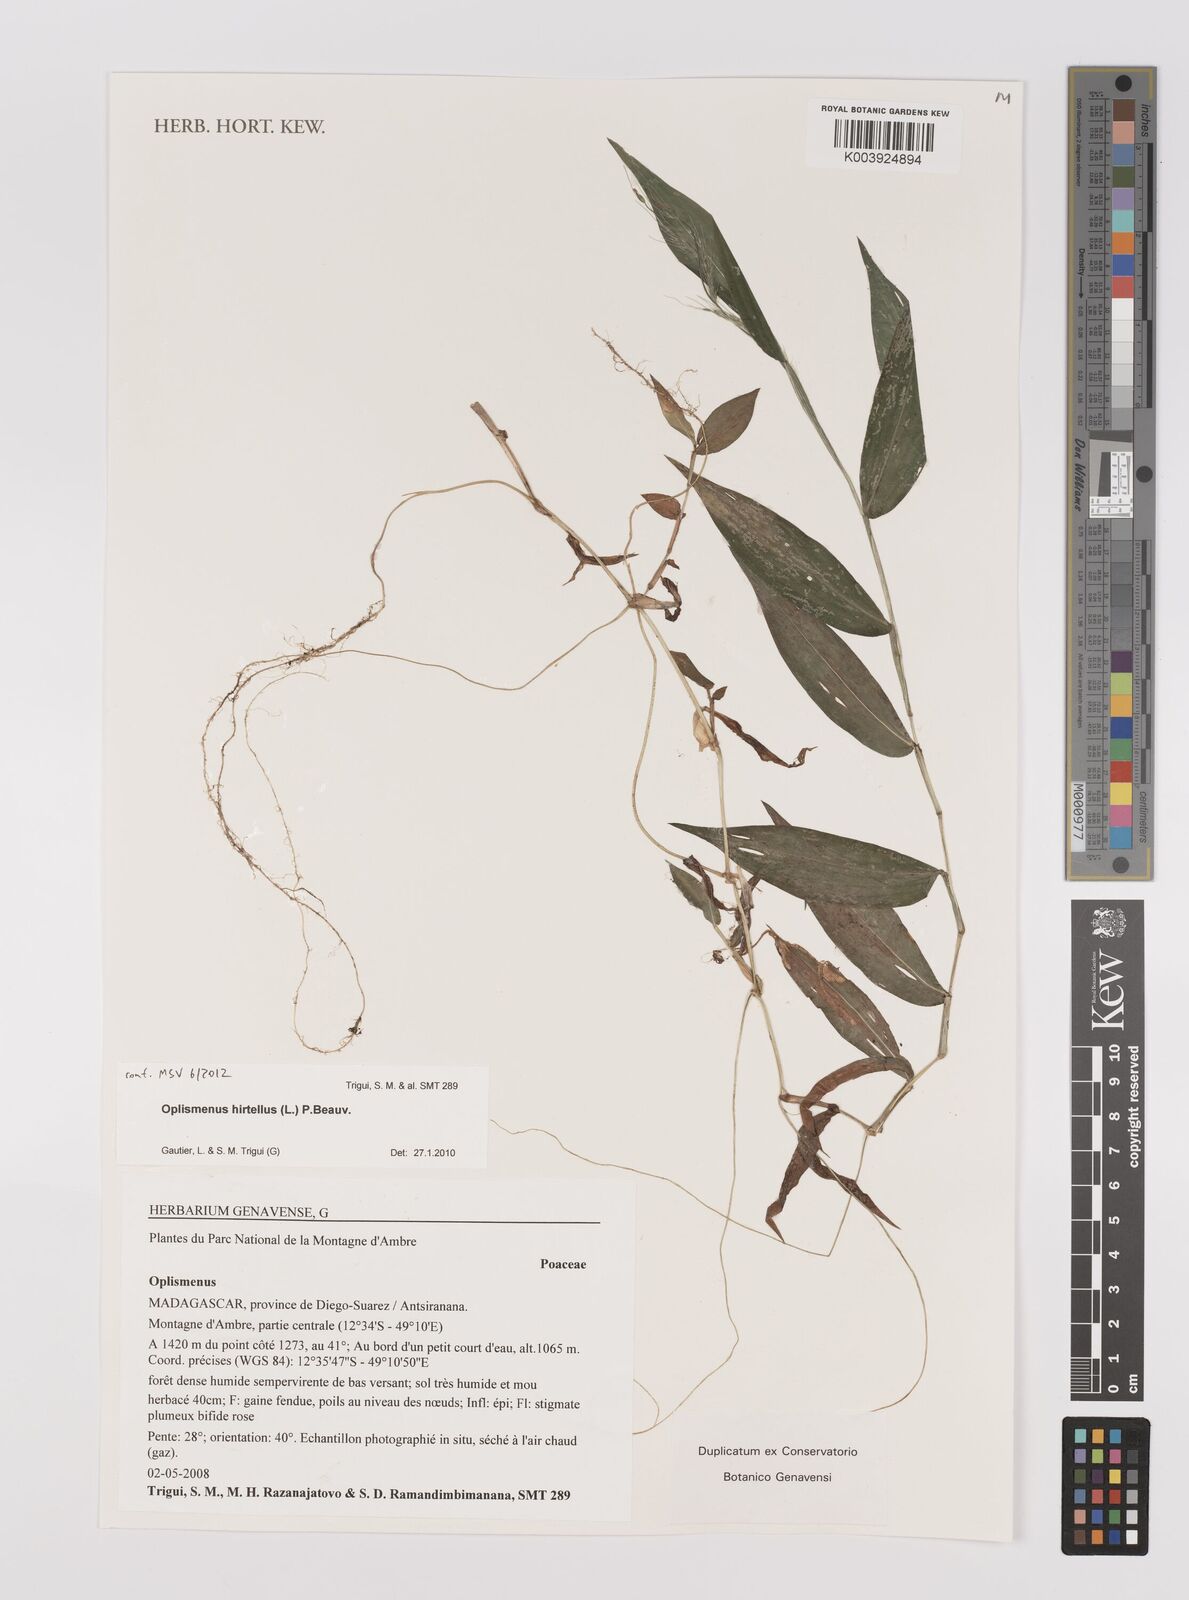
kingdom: Plantae
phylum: Tracheophyta
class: Liliopsida
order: Poales
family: Poaceae
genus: Oplismenus
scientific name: Oplismenus hirtellus
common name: Basketgrass
